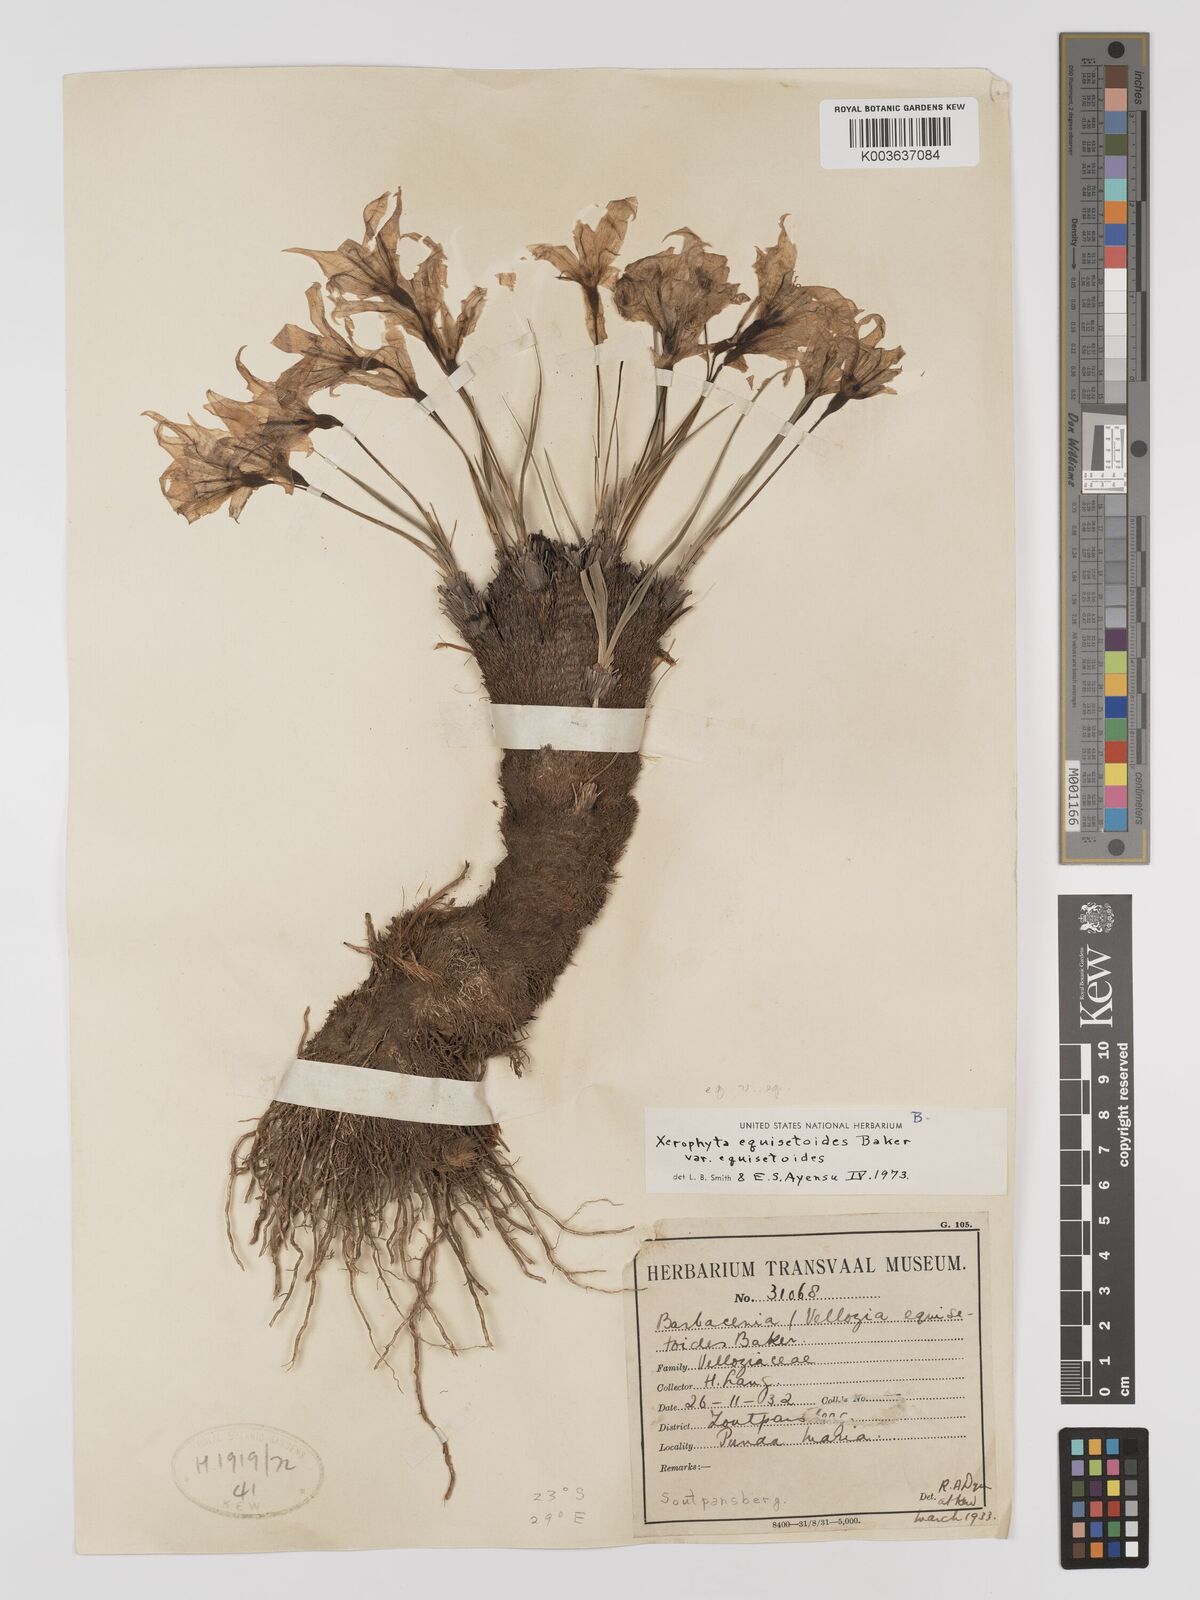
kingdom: Plantae
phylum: Tracheophyta
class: Liliopsida
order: Pandanales
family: Velloziaceae
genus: Xerophyta
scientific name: Xerophyta equisetoides
